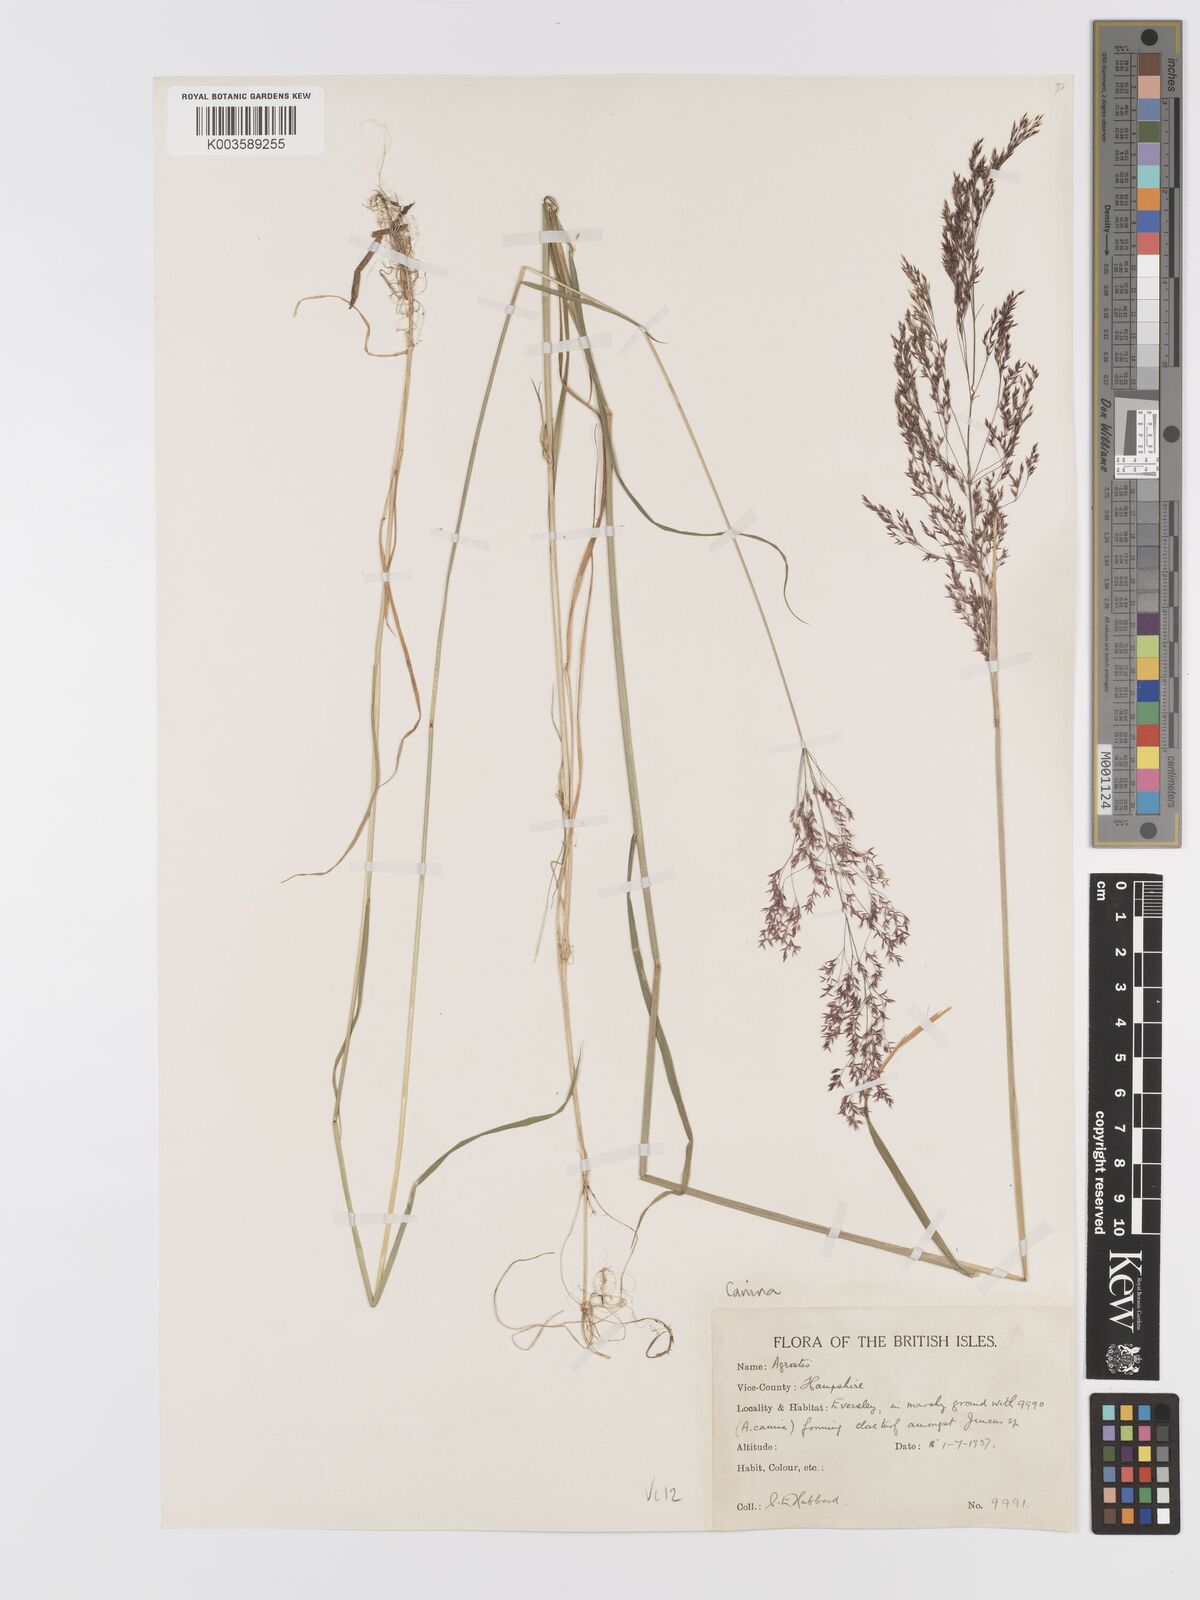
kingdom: Plantae
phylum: Tracheophyta
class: Liliopsida
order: Poales
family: Poaceae
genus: Agrostis
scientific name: Agrostis canina
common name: Velvet bent
